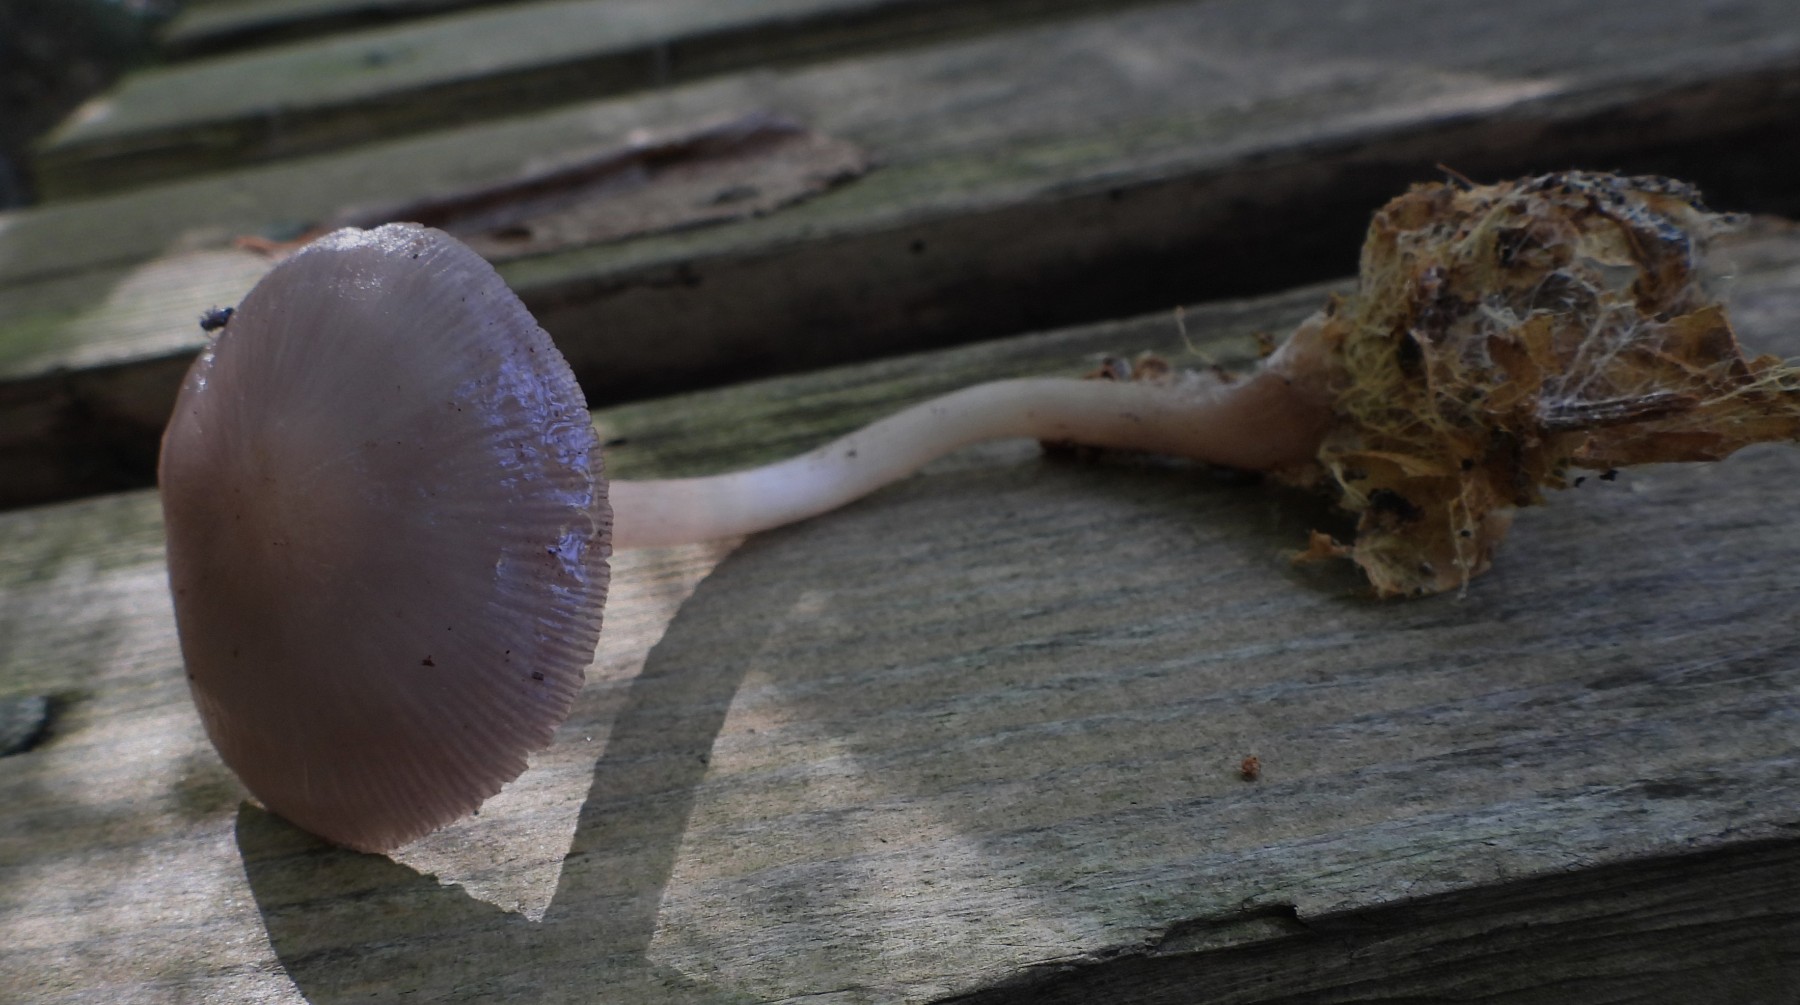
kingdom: Fungi
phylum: Basidiomycota
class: Agaricomycetes
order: Agaricales
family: Mycenaceae
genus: Mycena
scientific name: Mycena pelianthina
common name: mørkbladet huesvamp
